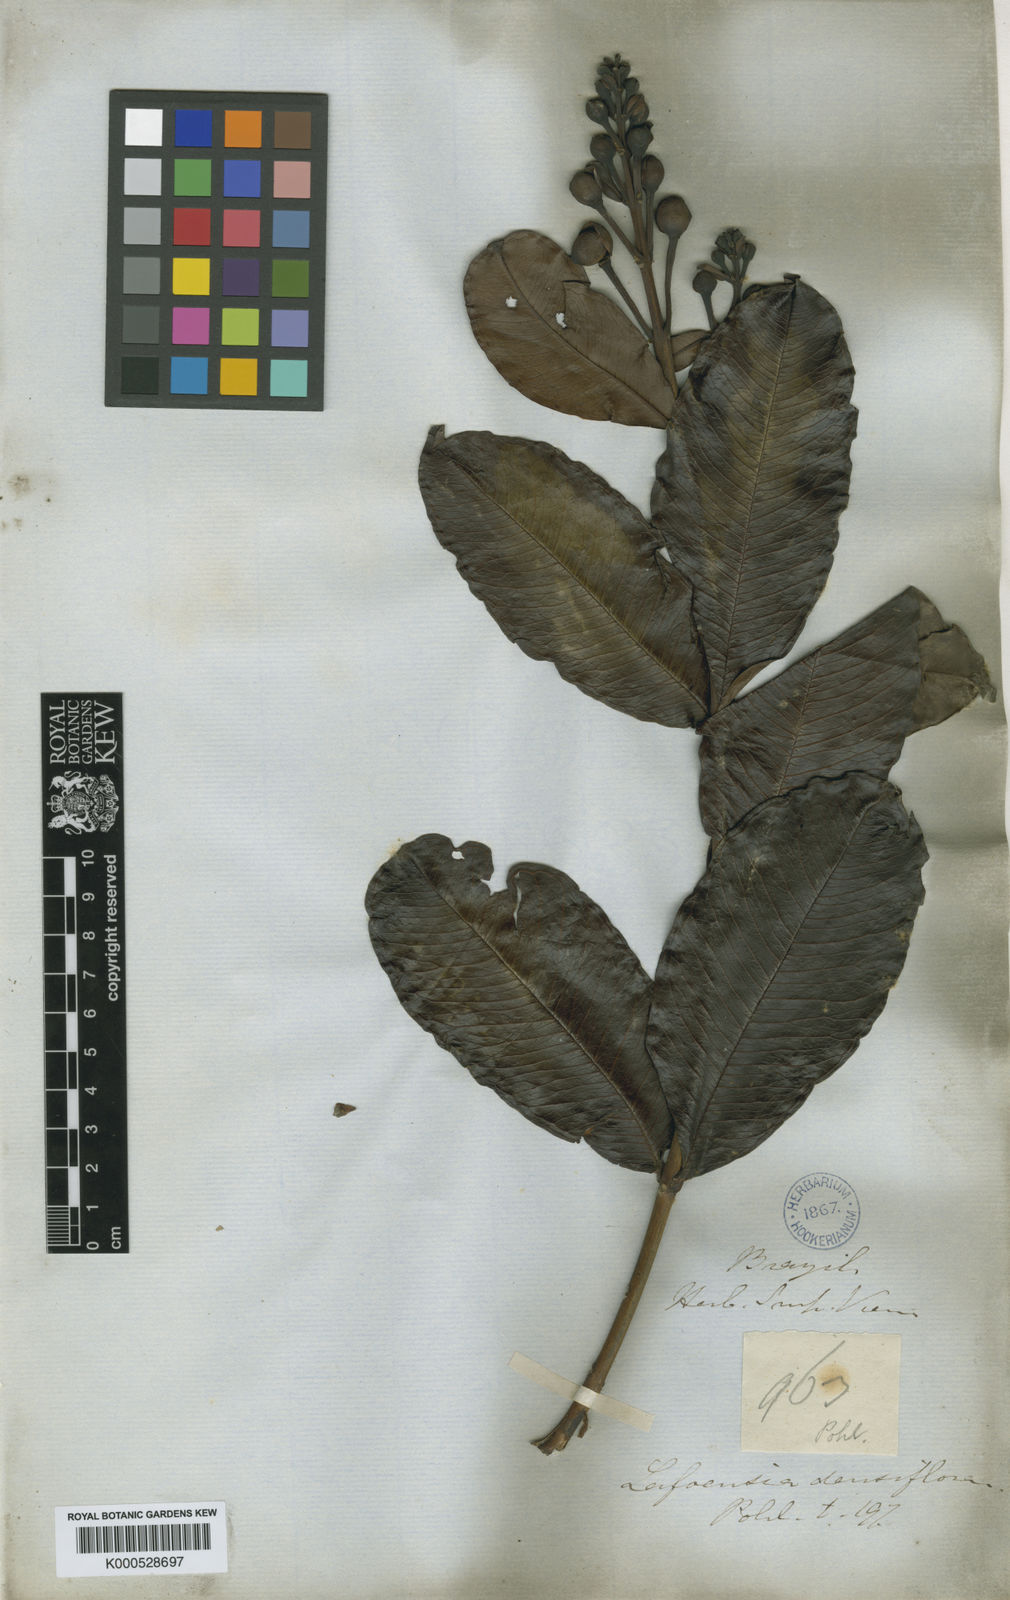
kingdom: Plantae
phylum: Tracheophyta
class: Magnoliopsida
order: Myrtales
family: Lythraceae
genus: Lafoensia
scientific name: Lafoensia vandelliana
